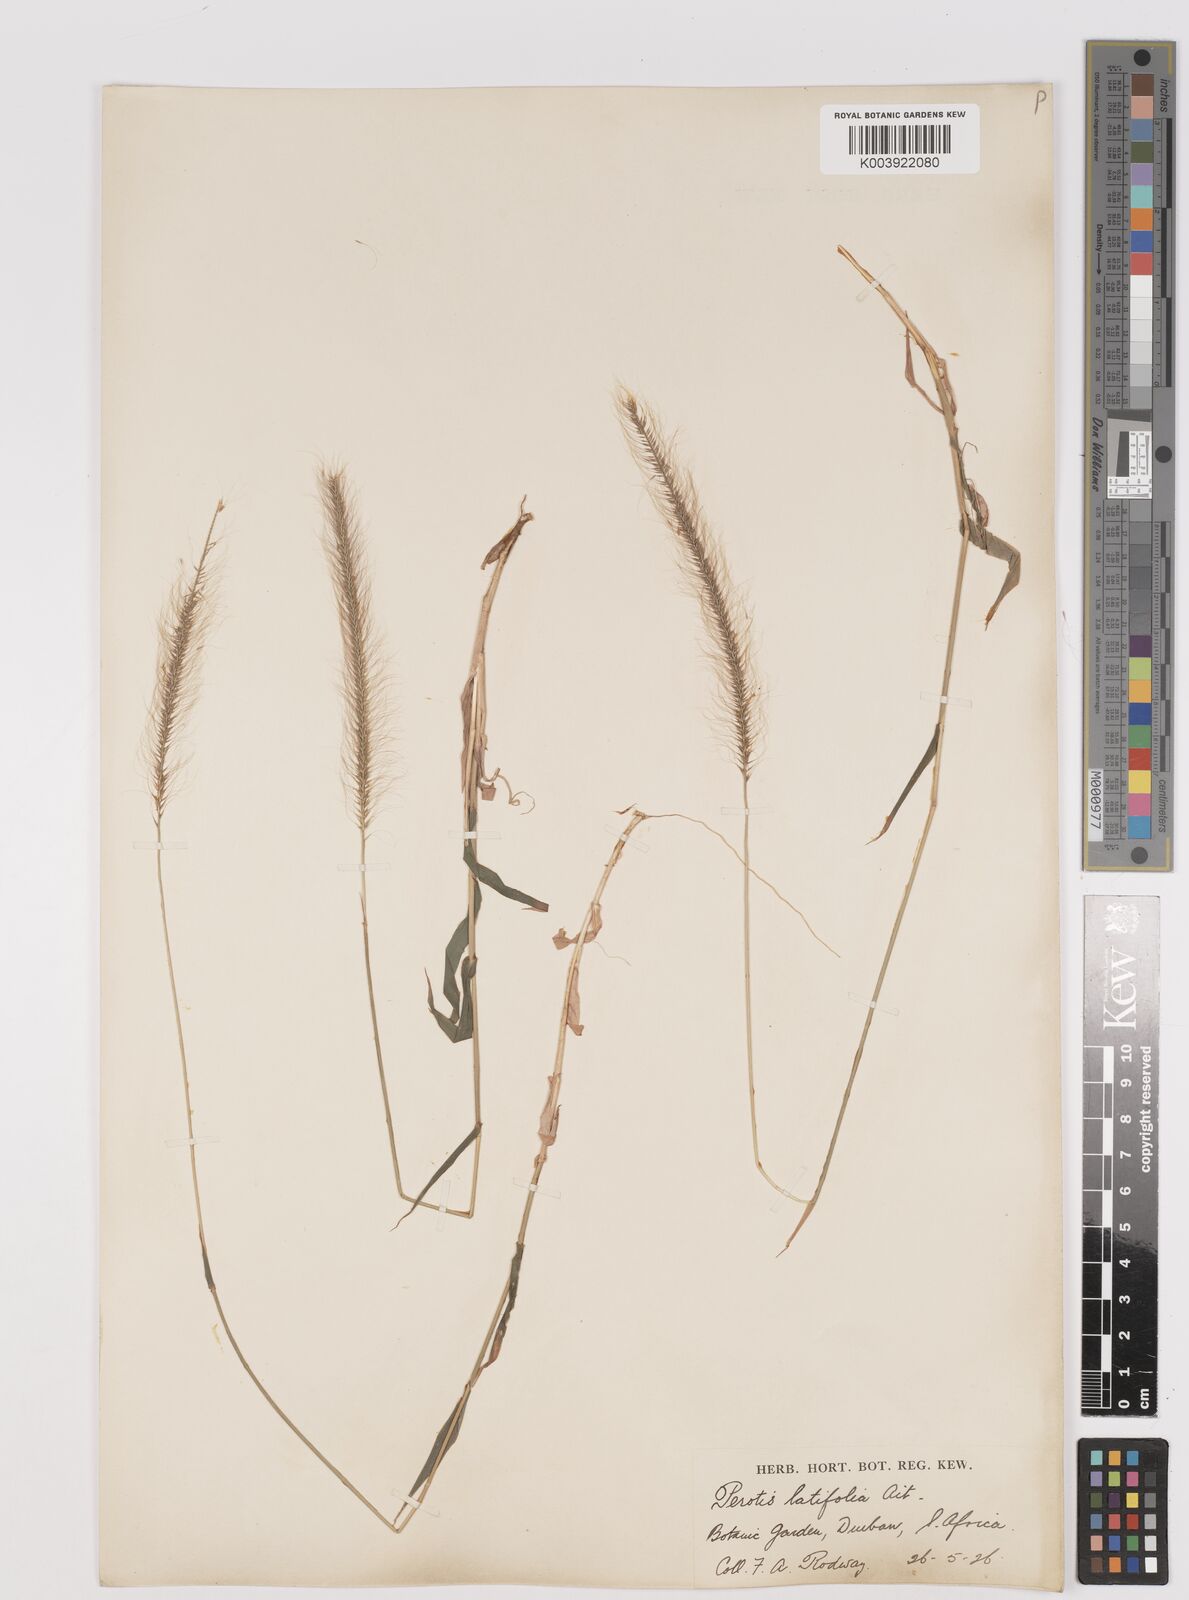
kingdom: Plantae
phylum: Tracheophyta
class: Liliopsida
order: Poales
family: Poaceae
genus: Perotis
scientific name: Perotis patens
